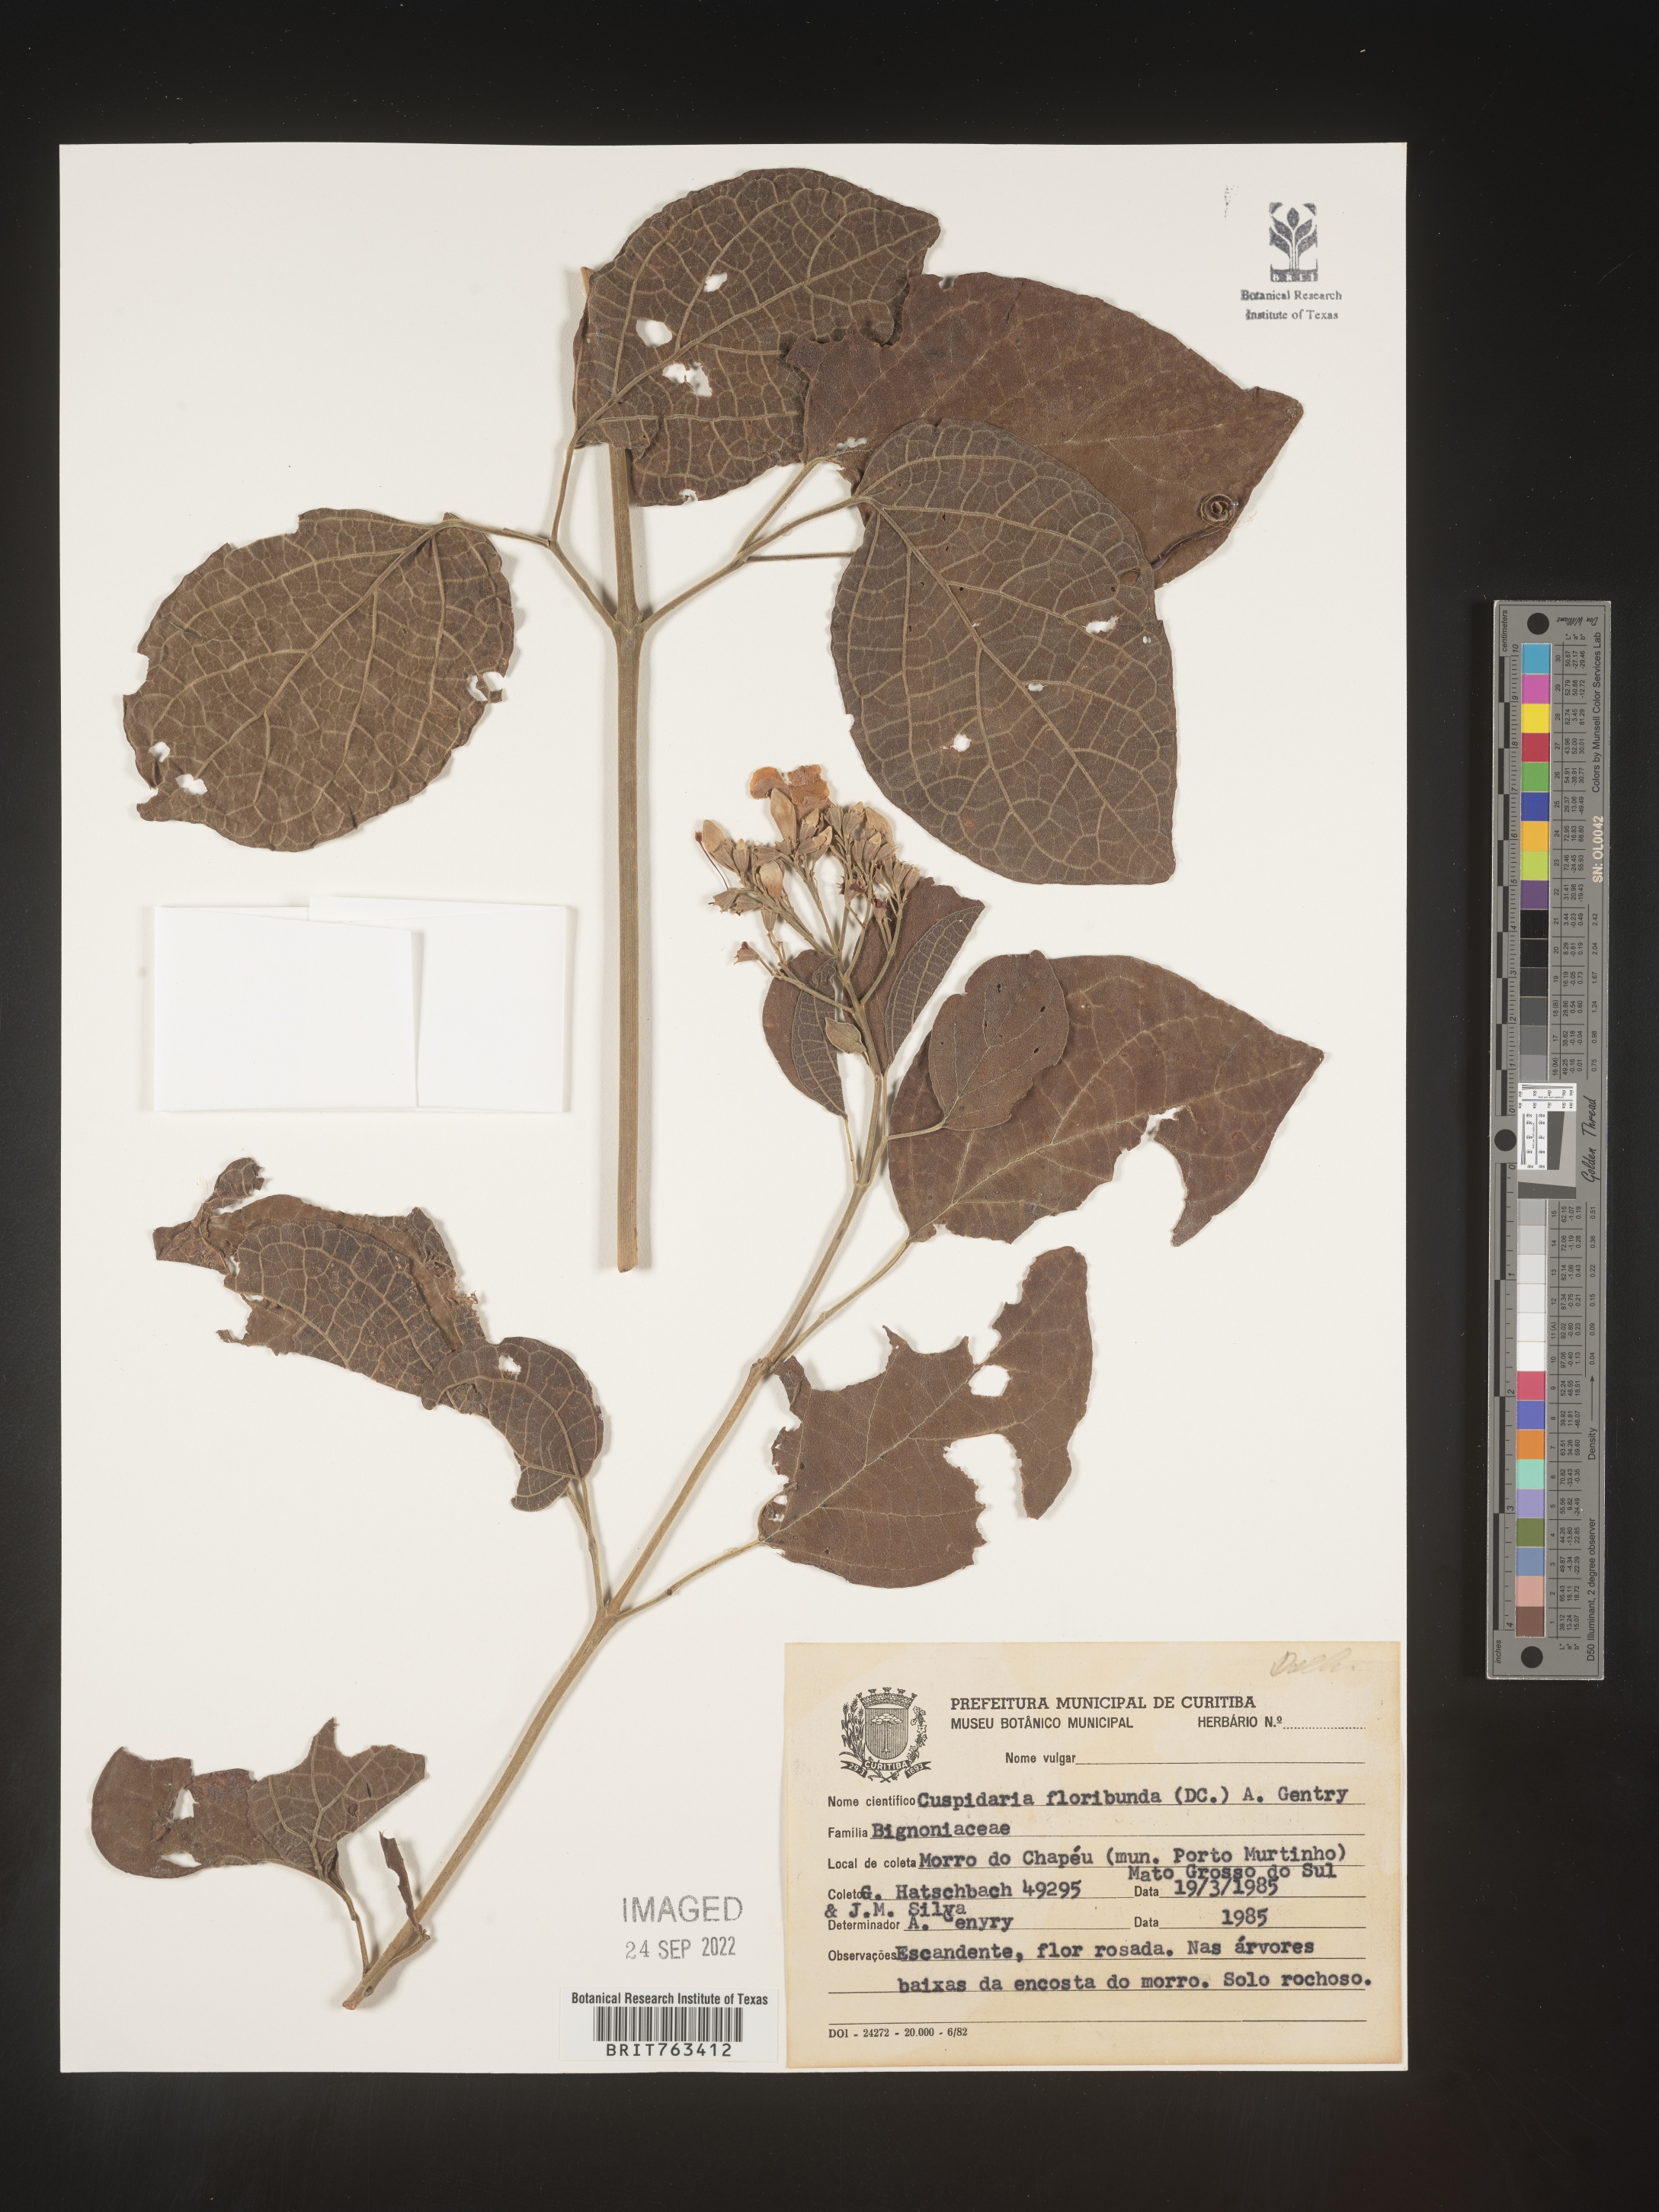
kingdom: Plantae
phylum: Tracheophyta
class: Magnoliopsida
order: Lamiales
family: Bignoniaceae
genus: Cuspidaria
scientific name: Cuspidaria
